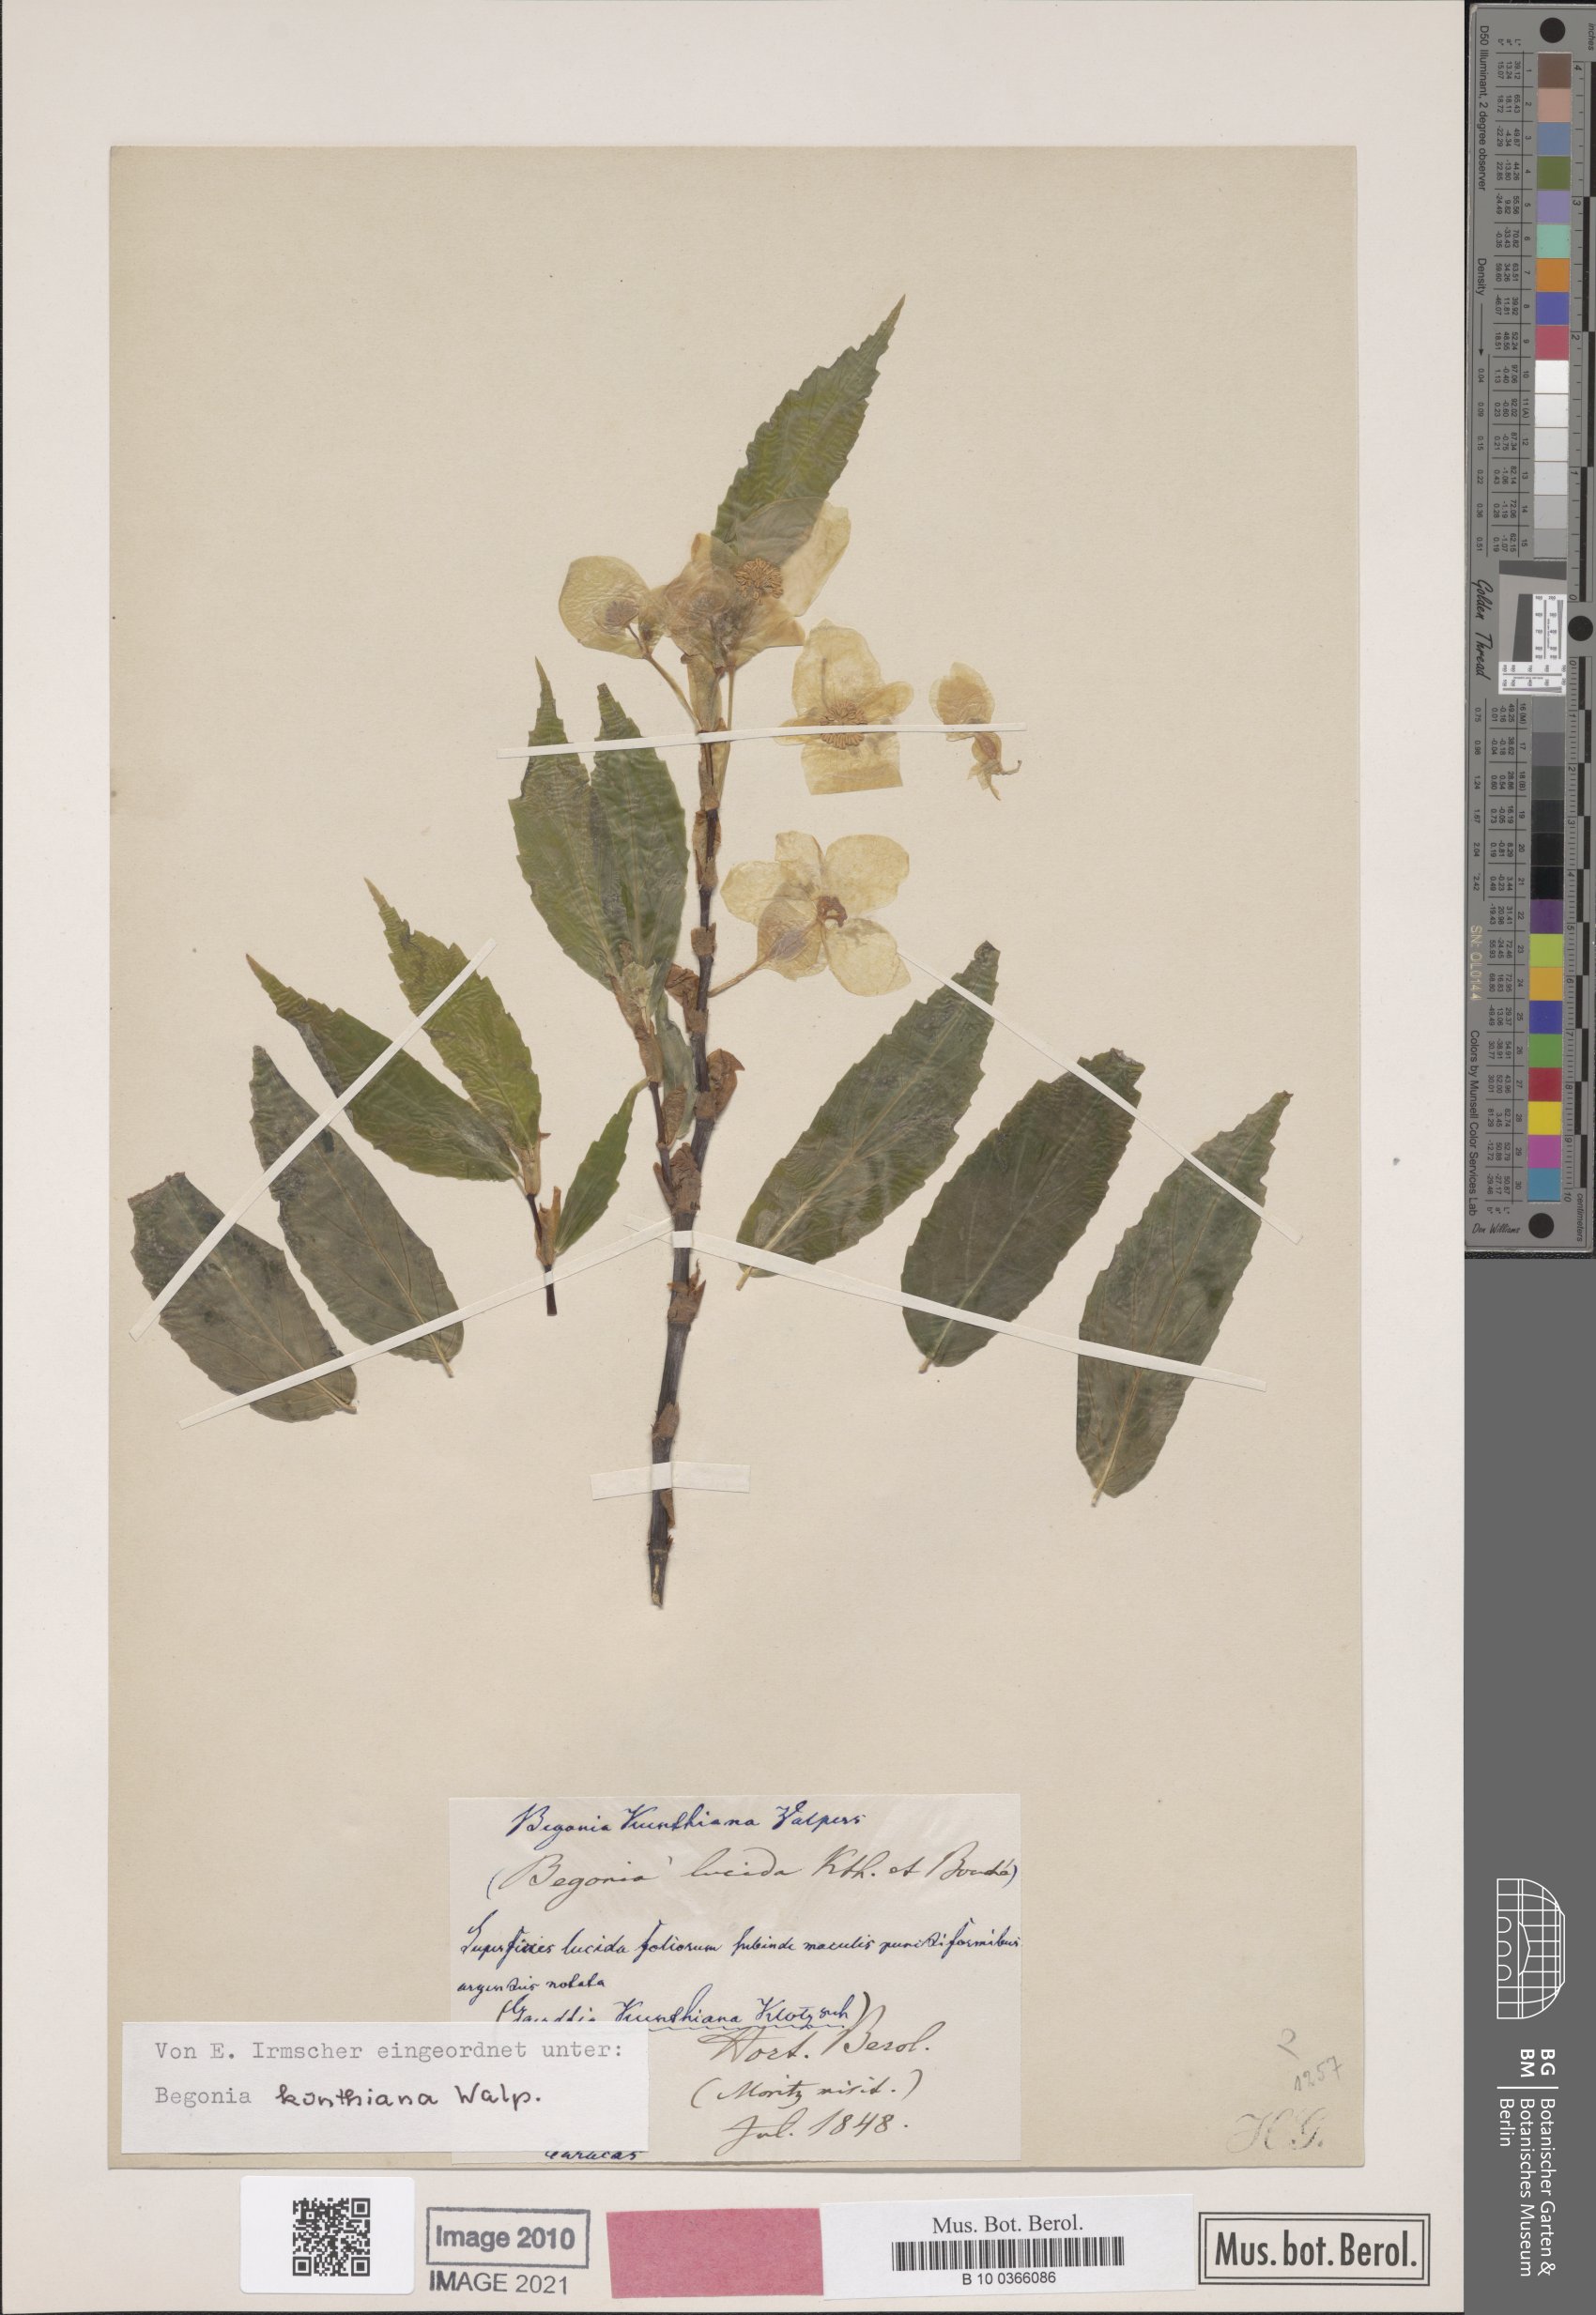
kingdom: Plantae
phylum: Tracheophyta
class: Magnoliopsida
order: Cucurbitales
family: Begoniaceae
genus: Begonia
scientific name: Begonia kunthiana
